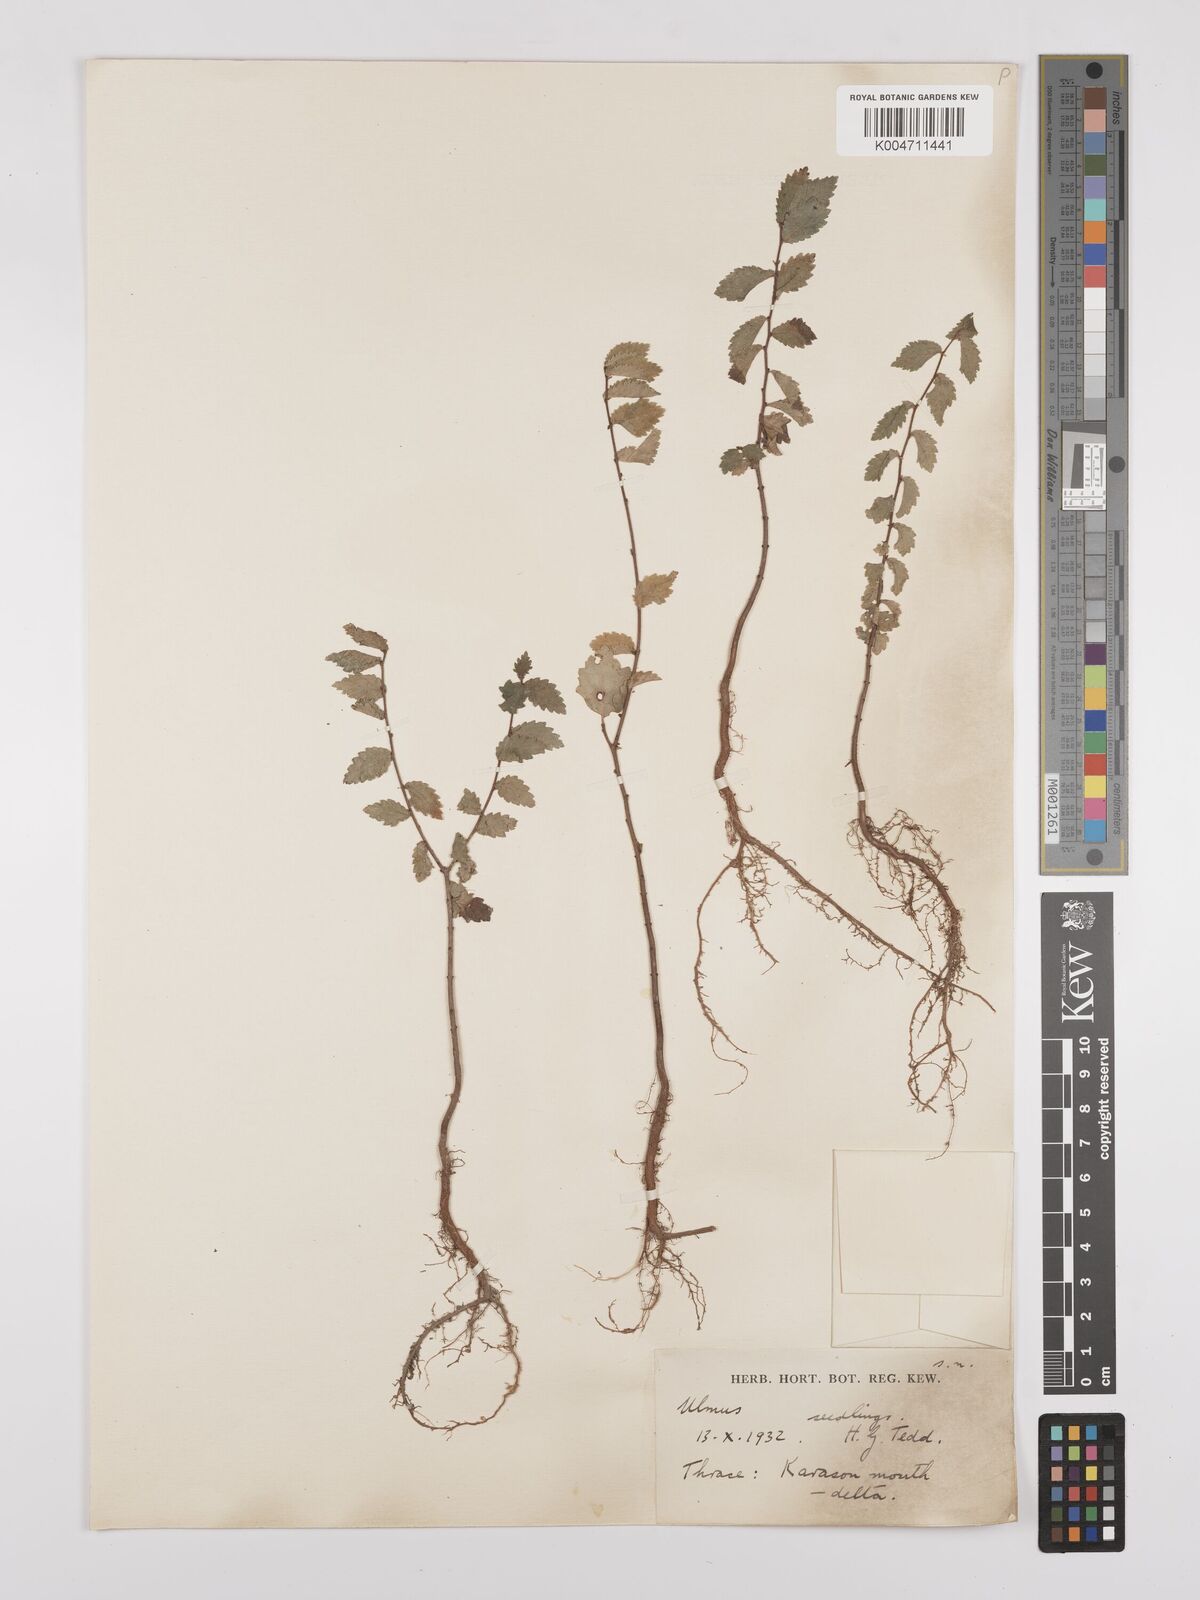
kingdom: Plantae
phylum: Tracheophyta
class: Magnoliopsida
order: Rosales
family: Ulmaceae
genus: Ulmus
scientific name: Ulmus
